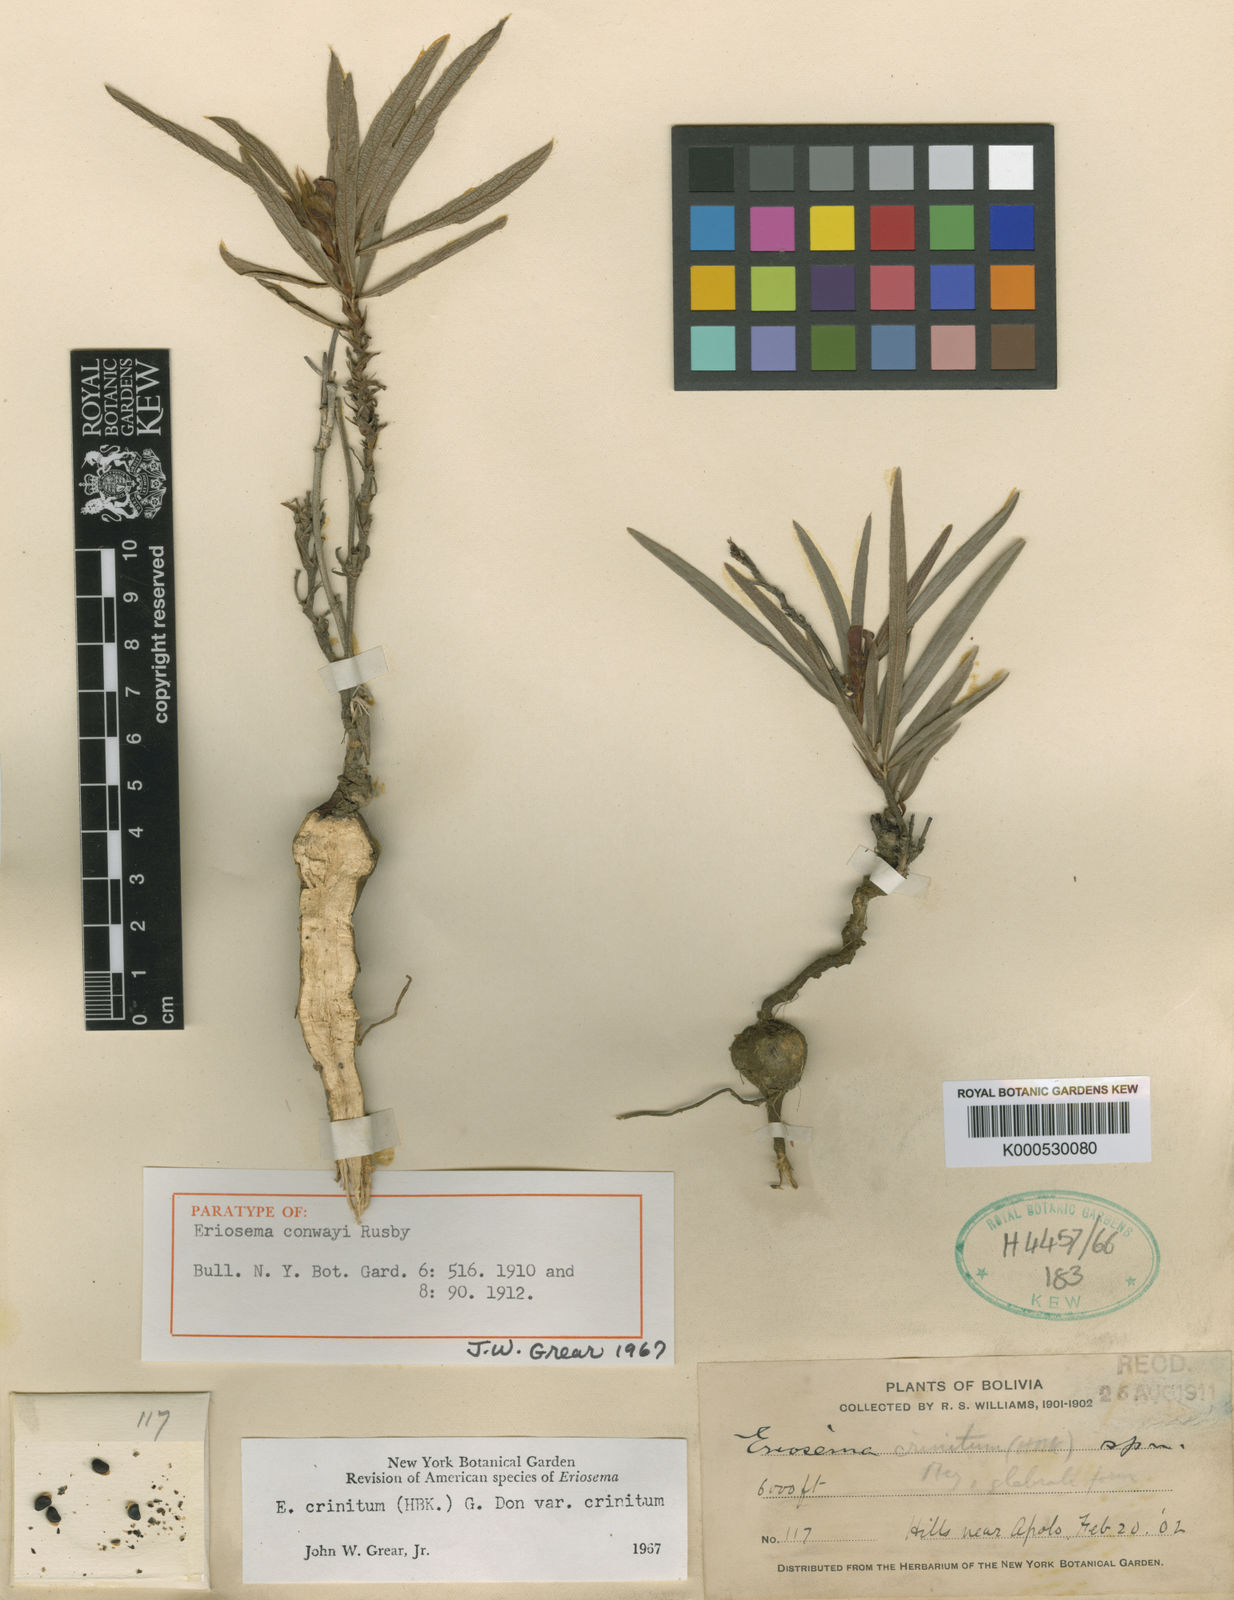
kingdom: Plantae
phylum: Tracheophyta
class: Magnoliopsida
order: Fabales
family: Fabaceae
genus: Eriosema
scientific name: Eriosema crinitum
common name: Sand pea
